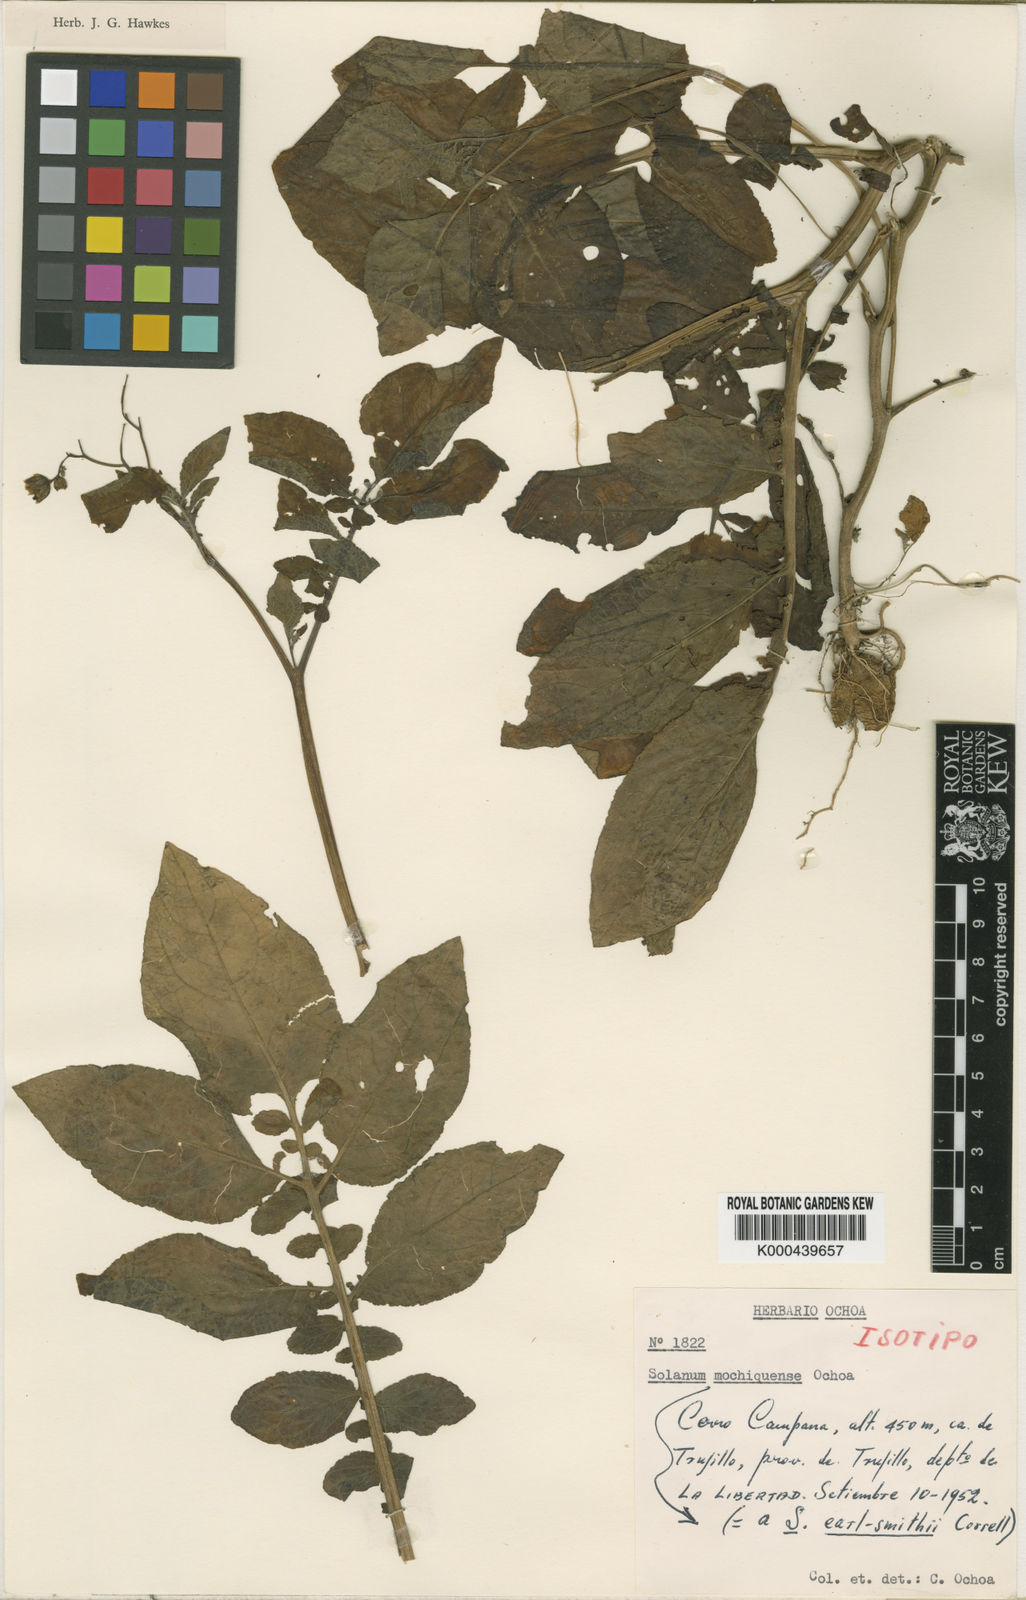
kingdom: Plantae
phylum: Tracheophyta
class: Magnoliopsida
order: Solanales
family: Solanaceae
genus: Solanum
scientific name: Solanum mochiquense
